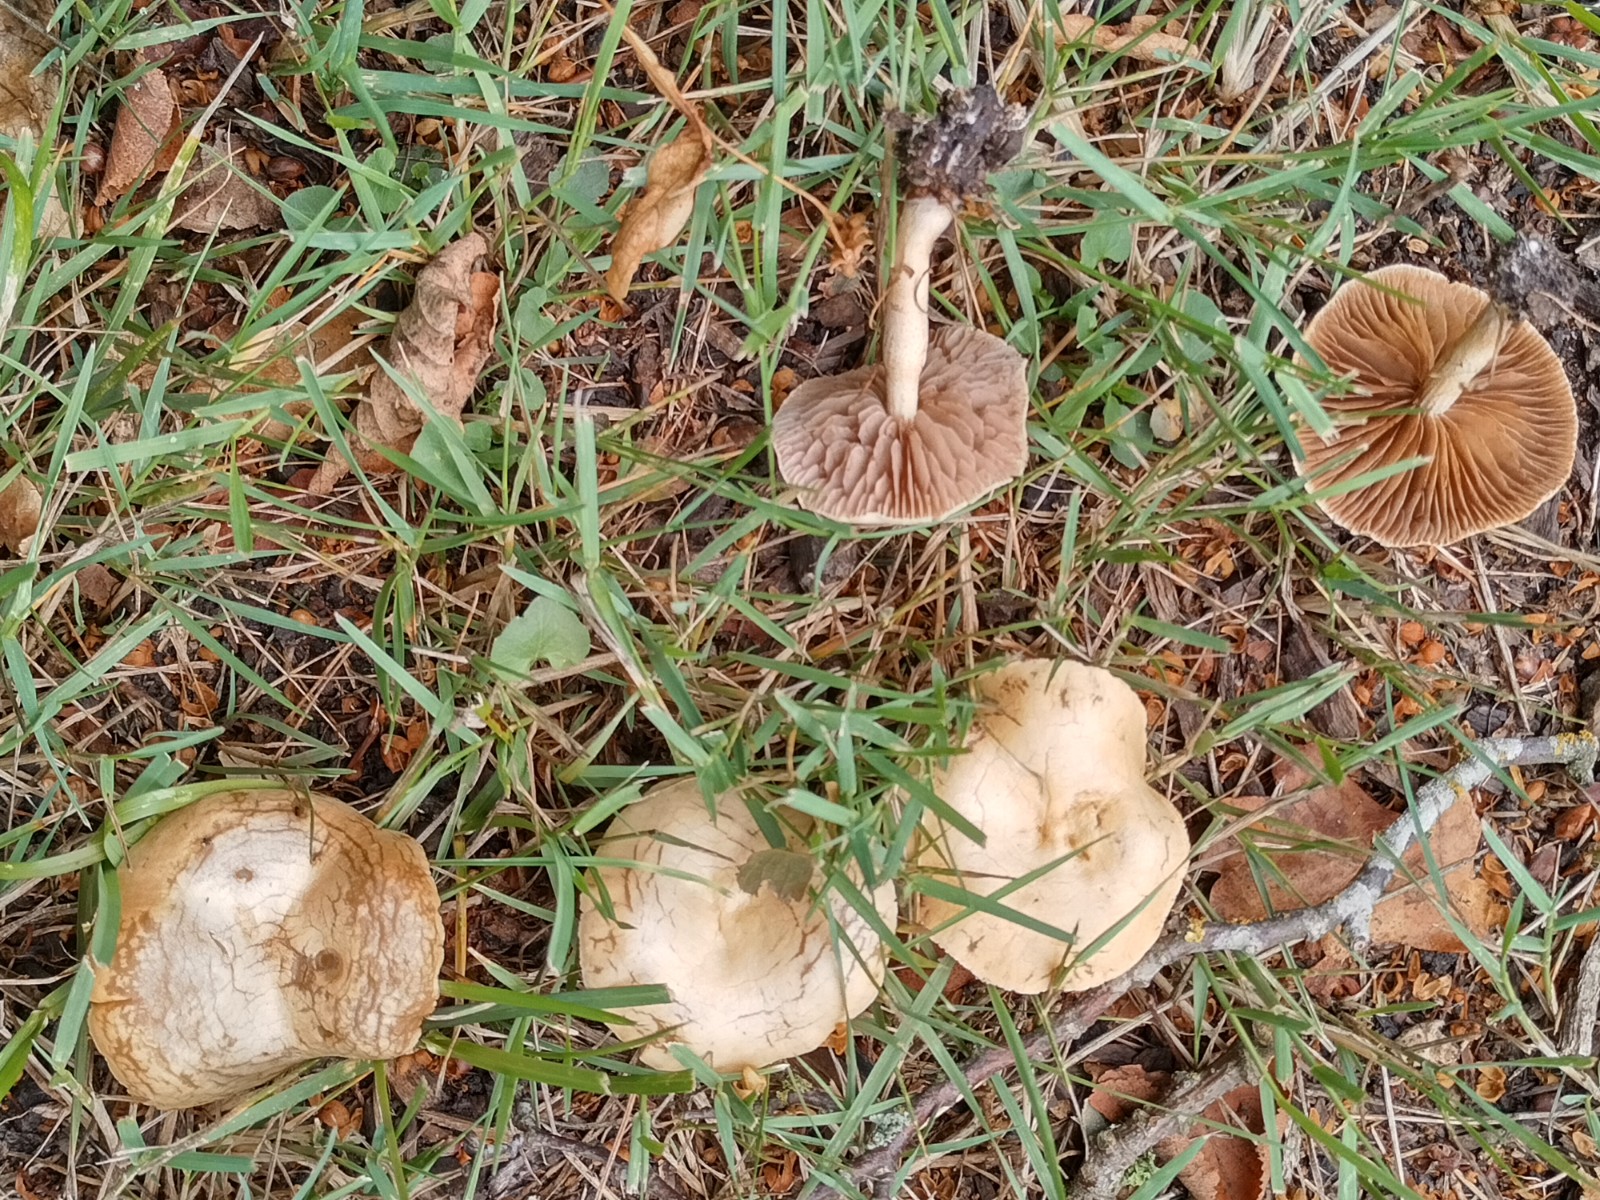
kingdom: Fungi
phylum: Basidiomycota
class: Agaricomycetes
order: Agaricales
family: Strophariaceae
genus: Agrocybe
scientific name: Agrocybe pediades
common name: almindelig agerhat
